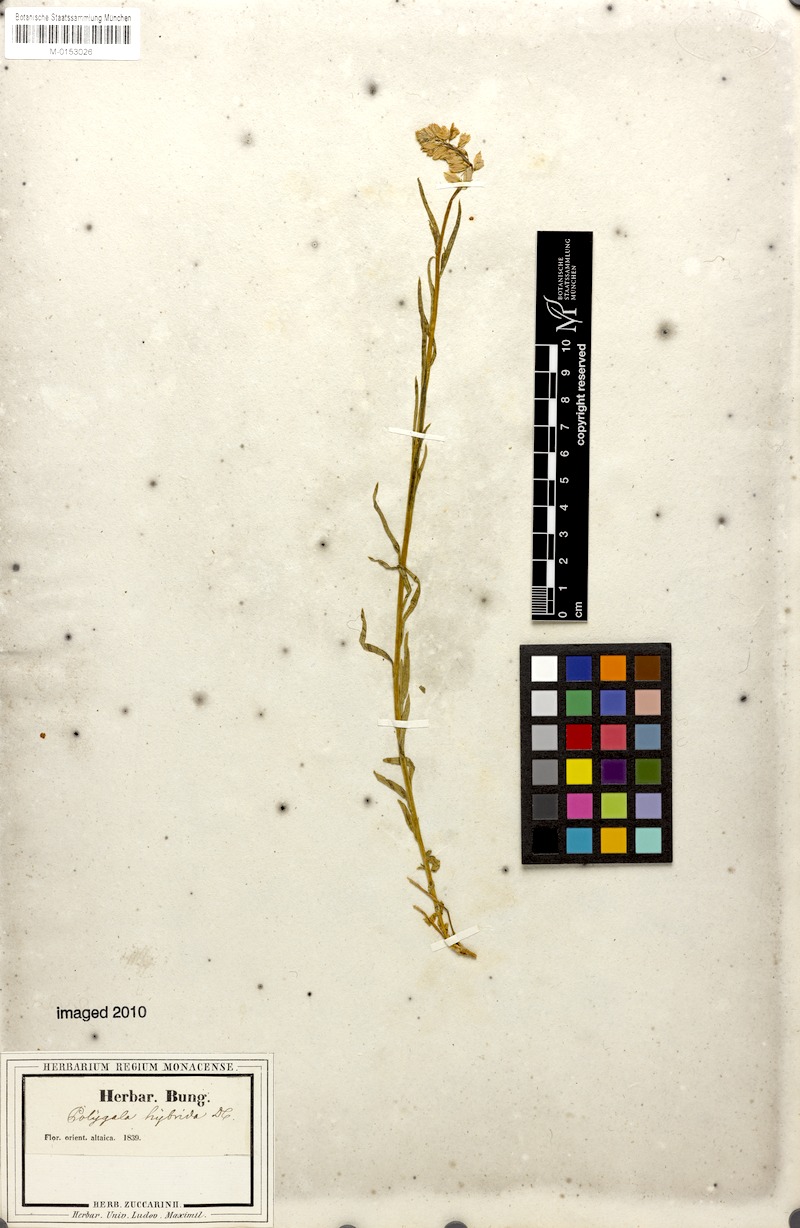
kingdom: Plantae
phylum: Tracheophyta
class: Magnoliopsida
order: Fabales
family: Polygalaceae
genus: Polygala
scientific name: Polygala comosa
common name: Tufted milkwort
